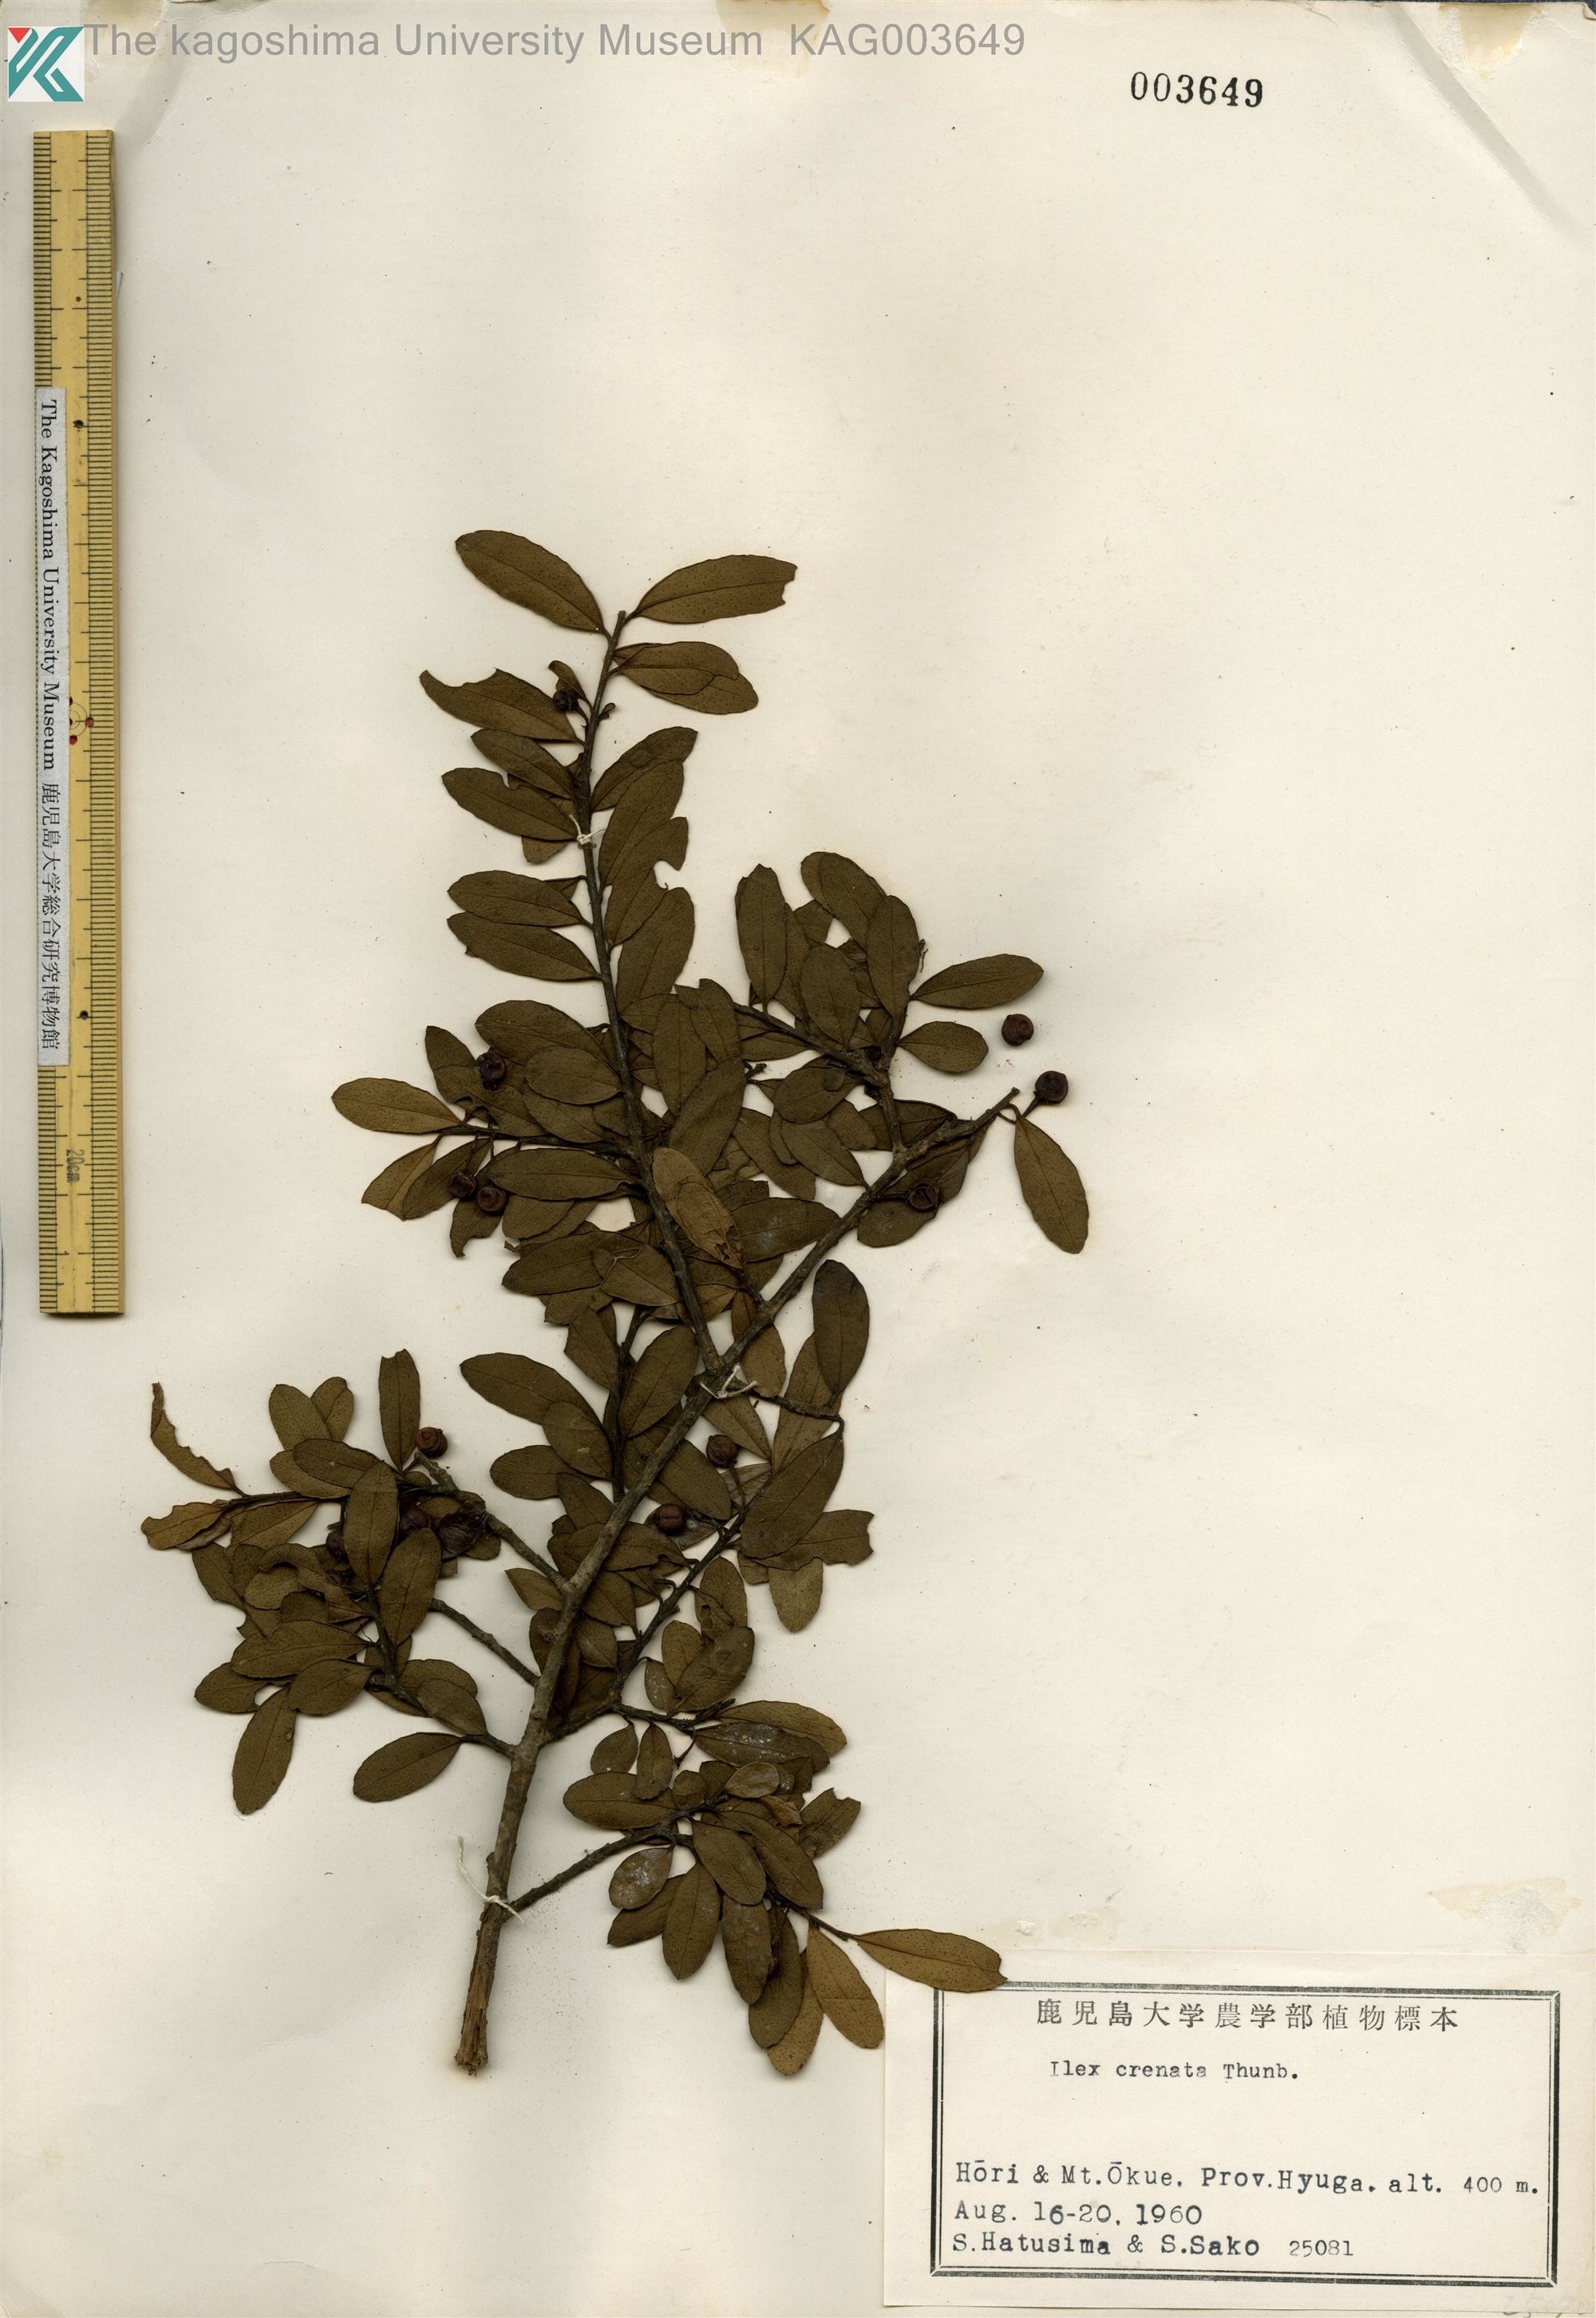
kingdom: Plantae
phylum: Tracheophyta
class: Magnoliopsida
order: Aquifoliales
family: Aquifoliaceae
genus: Ilex
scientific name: Ilex crenata
